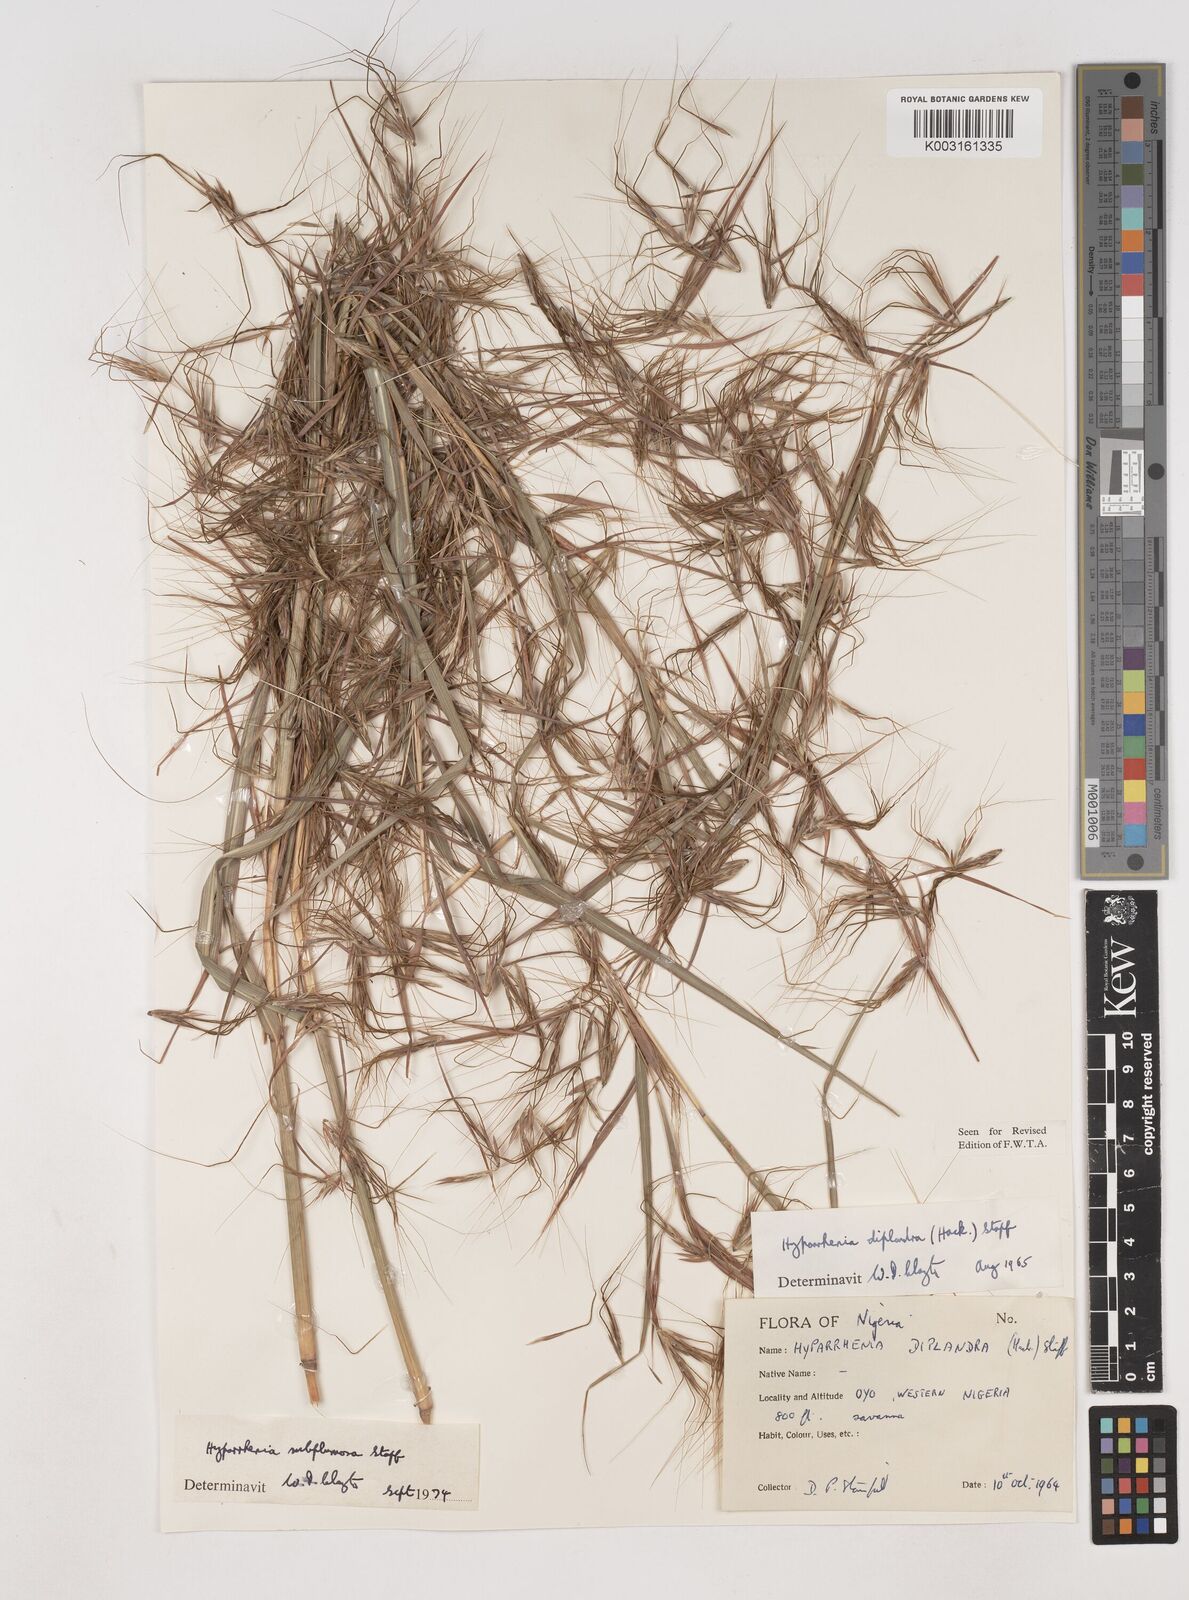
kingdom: Plantae
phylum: Tracheophyta
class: Liliopsida
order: Poales
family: Poaceae
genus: Hyparrhenia
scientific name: Hyparrhenia subplumosa
